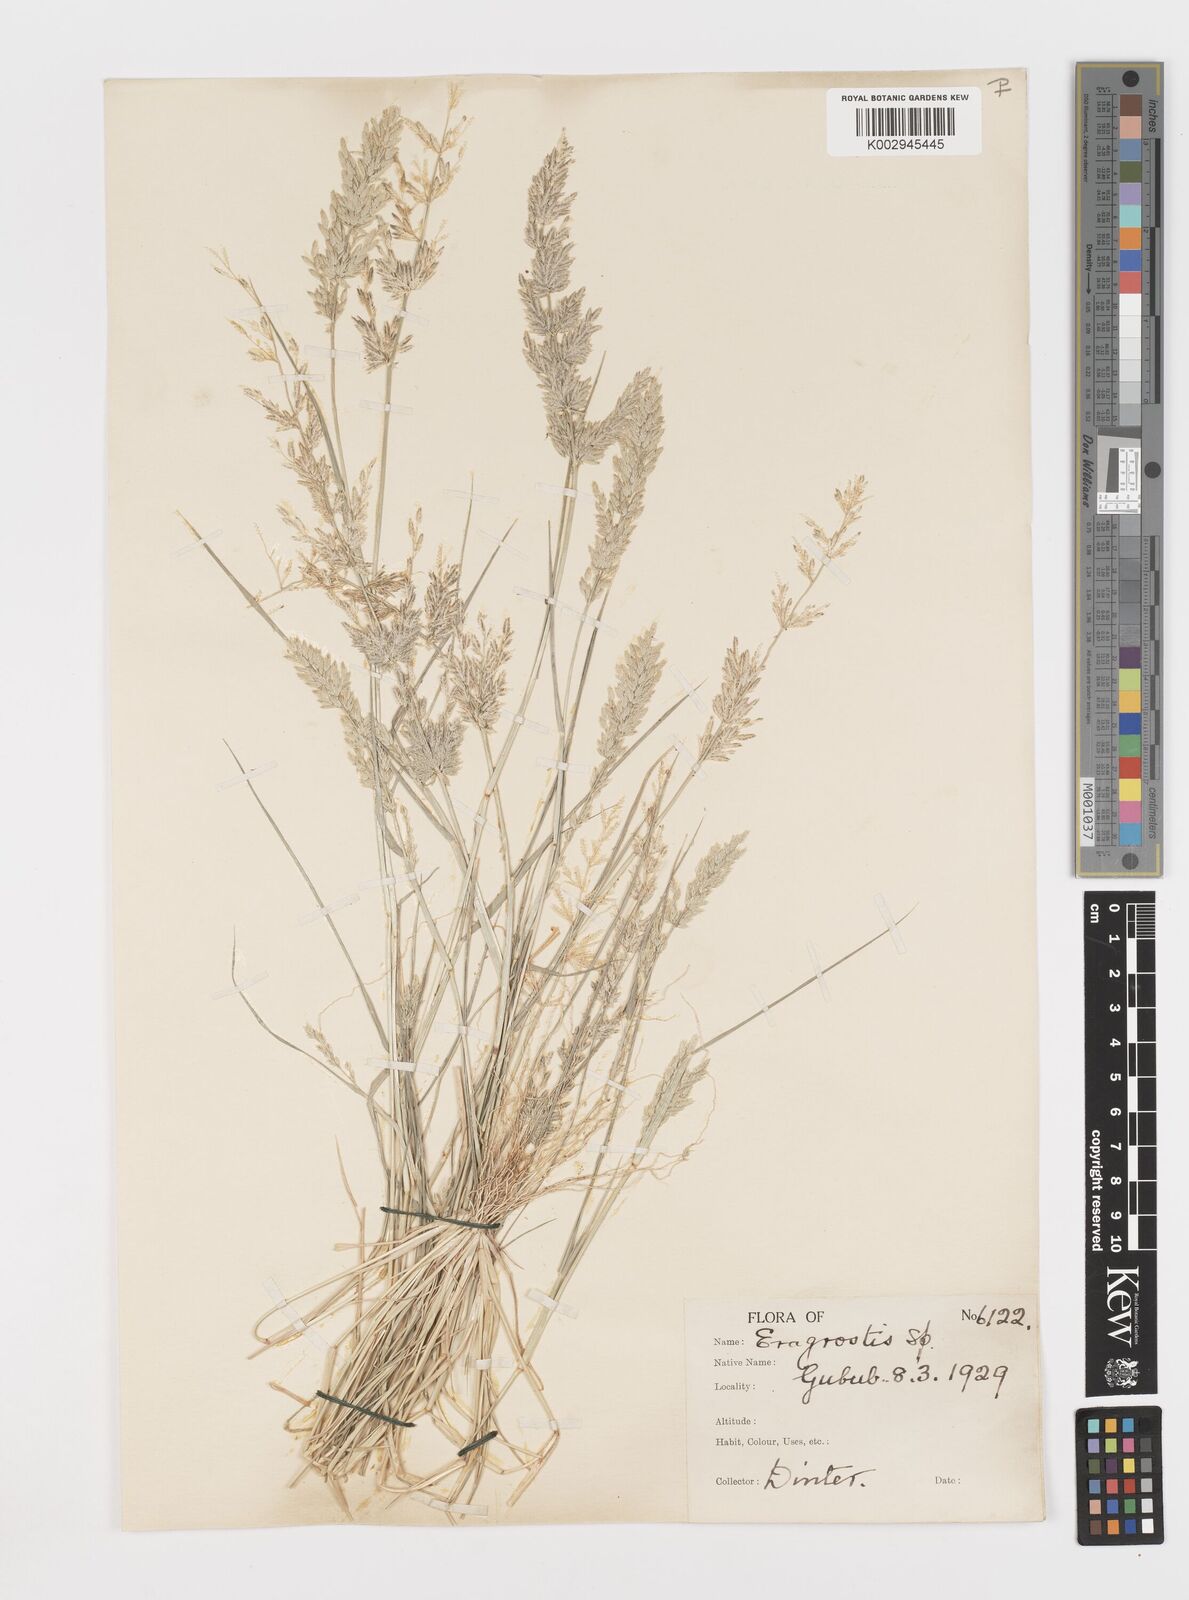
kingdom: Plantae
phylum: Tracheophyta
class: Liliopsida
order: Poales
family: Poaceae
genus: Eragrostis
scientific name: Eragrostis procumbens
